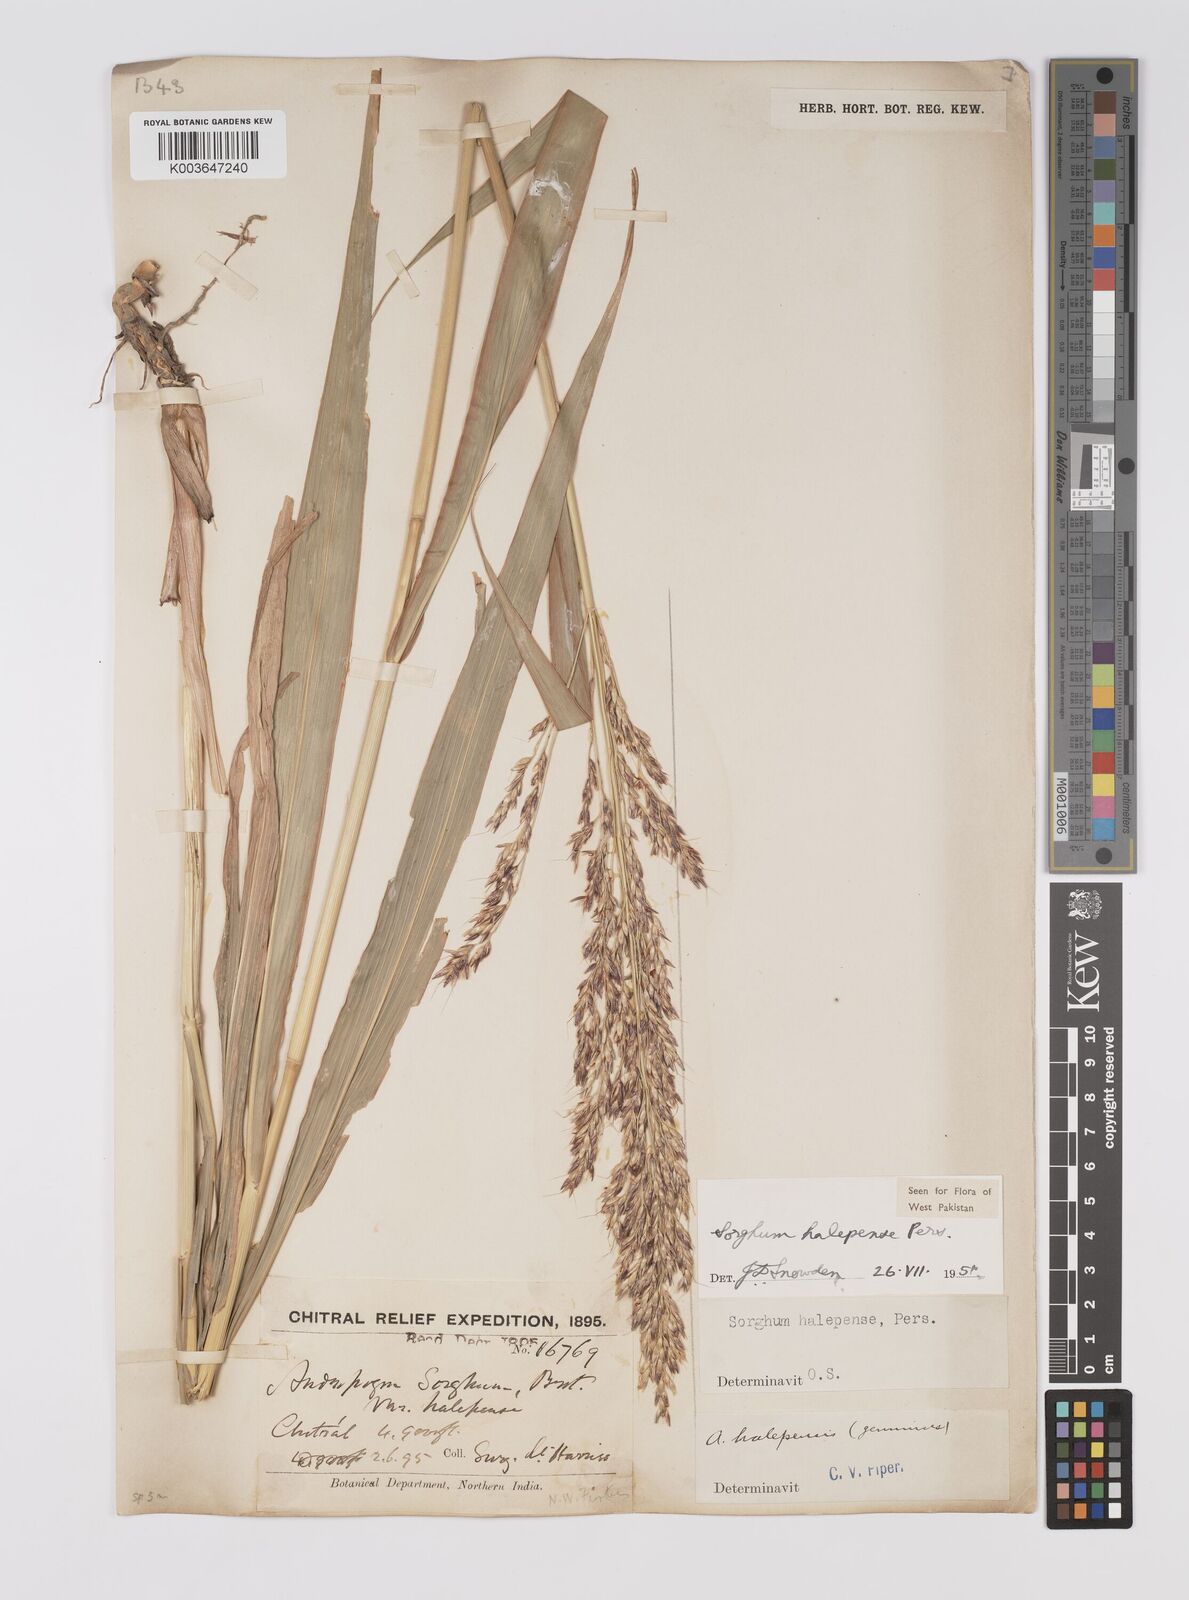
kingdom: Plantae
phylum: Tracheophyta
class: Liliopsida
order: Poales
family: Poaceae
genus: Sorghum
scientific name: Sorghum halepense
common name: Johnson-grass
